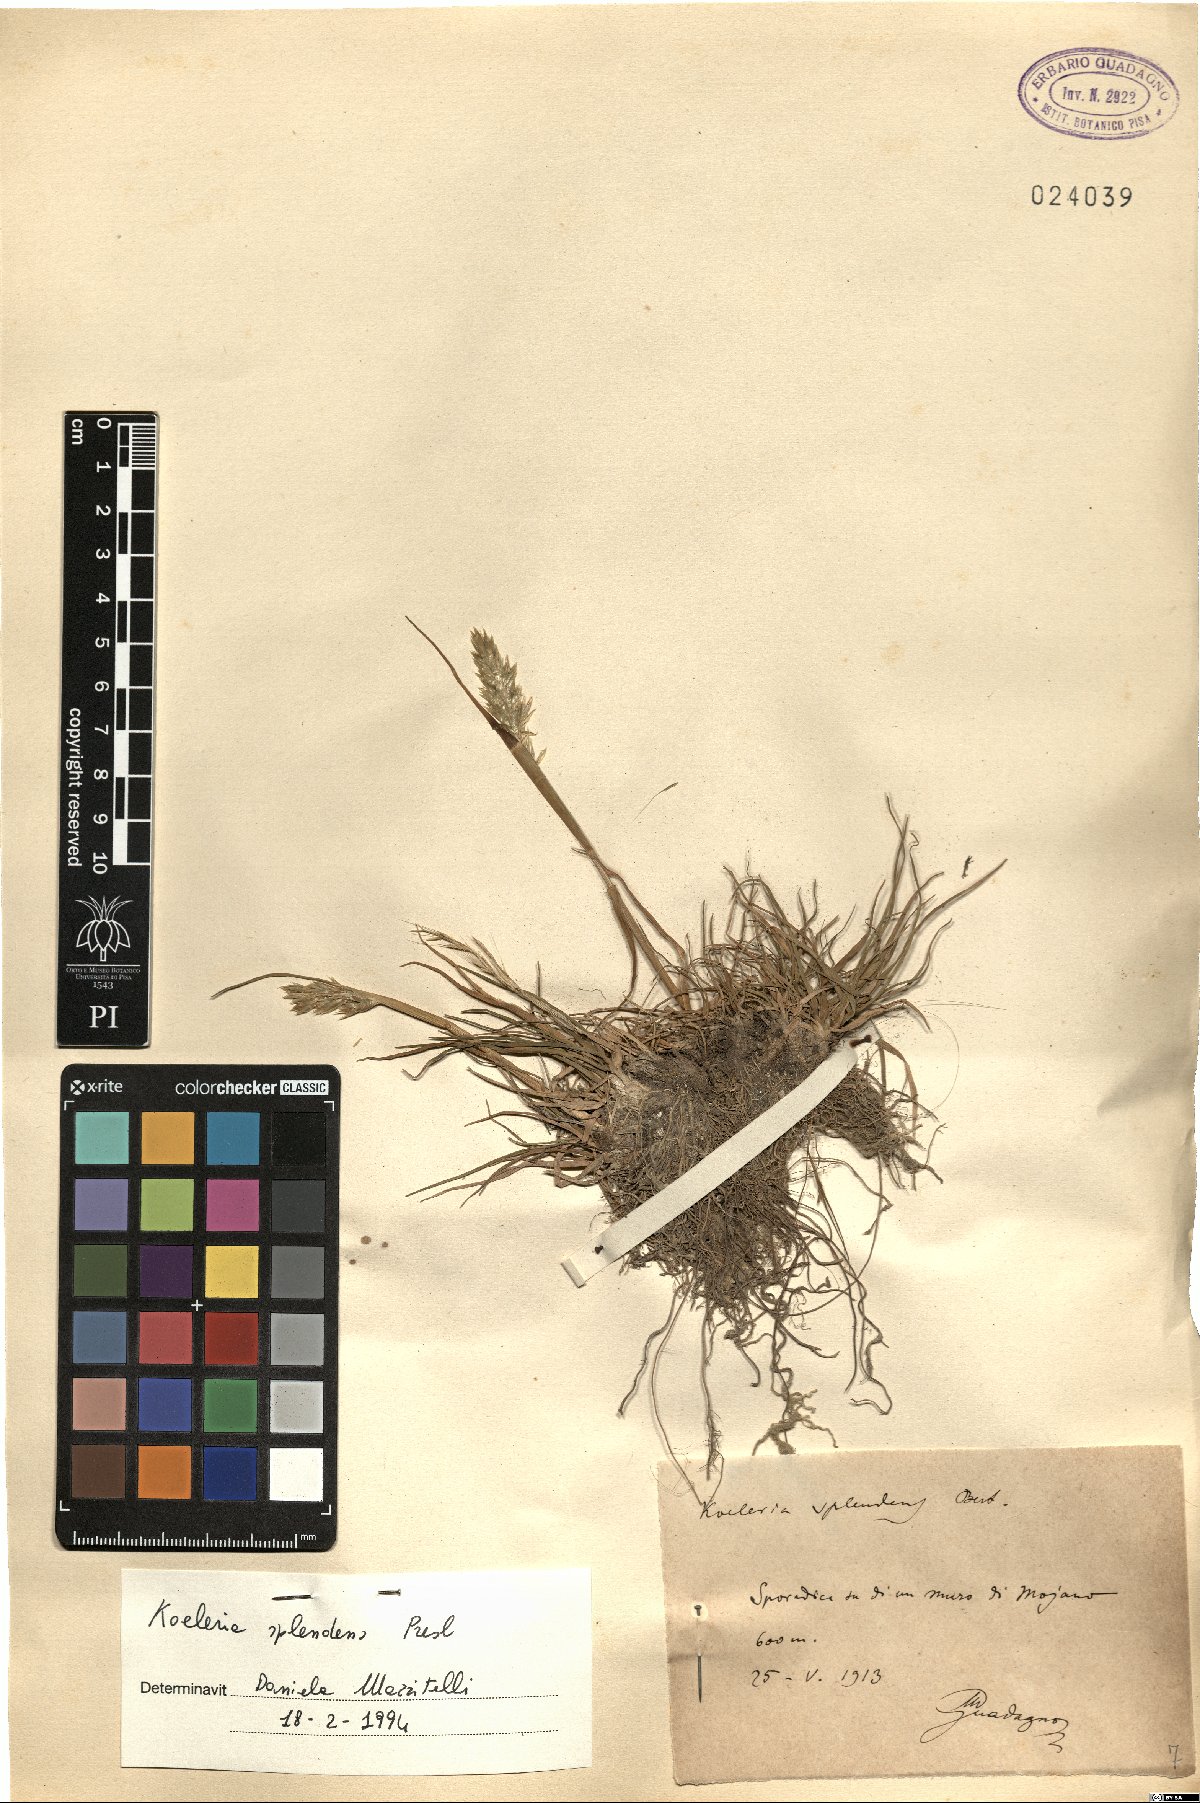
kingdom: Plantae
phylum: Tracheophyta
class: Liliopsida
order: Poales
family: Poaceae
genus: Koeleria
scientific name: Koeleria splendens
